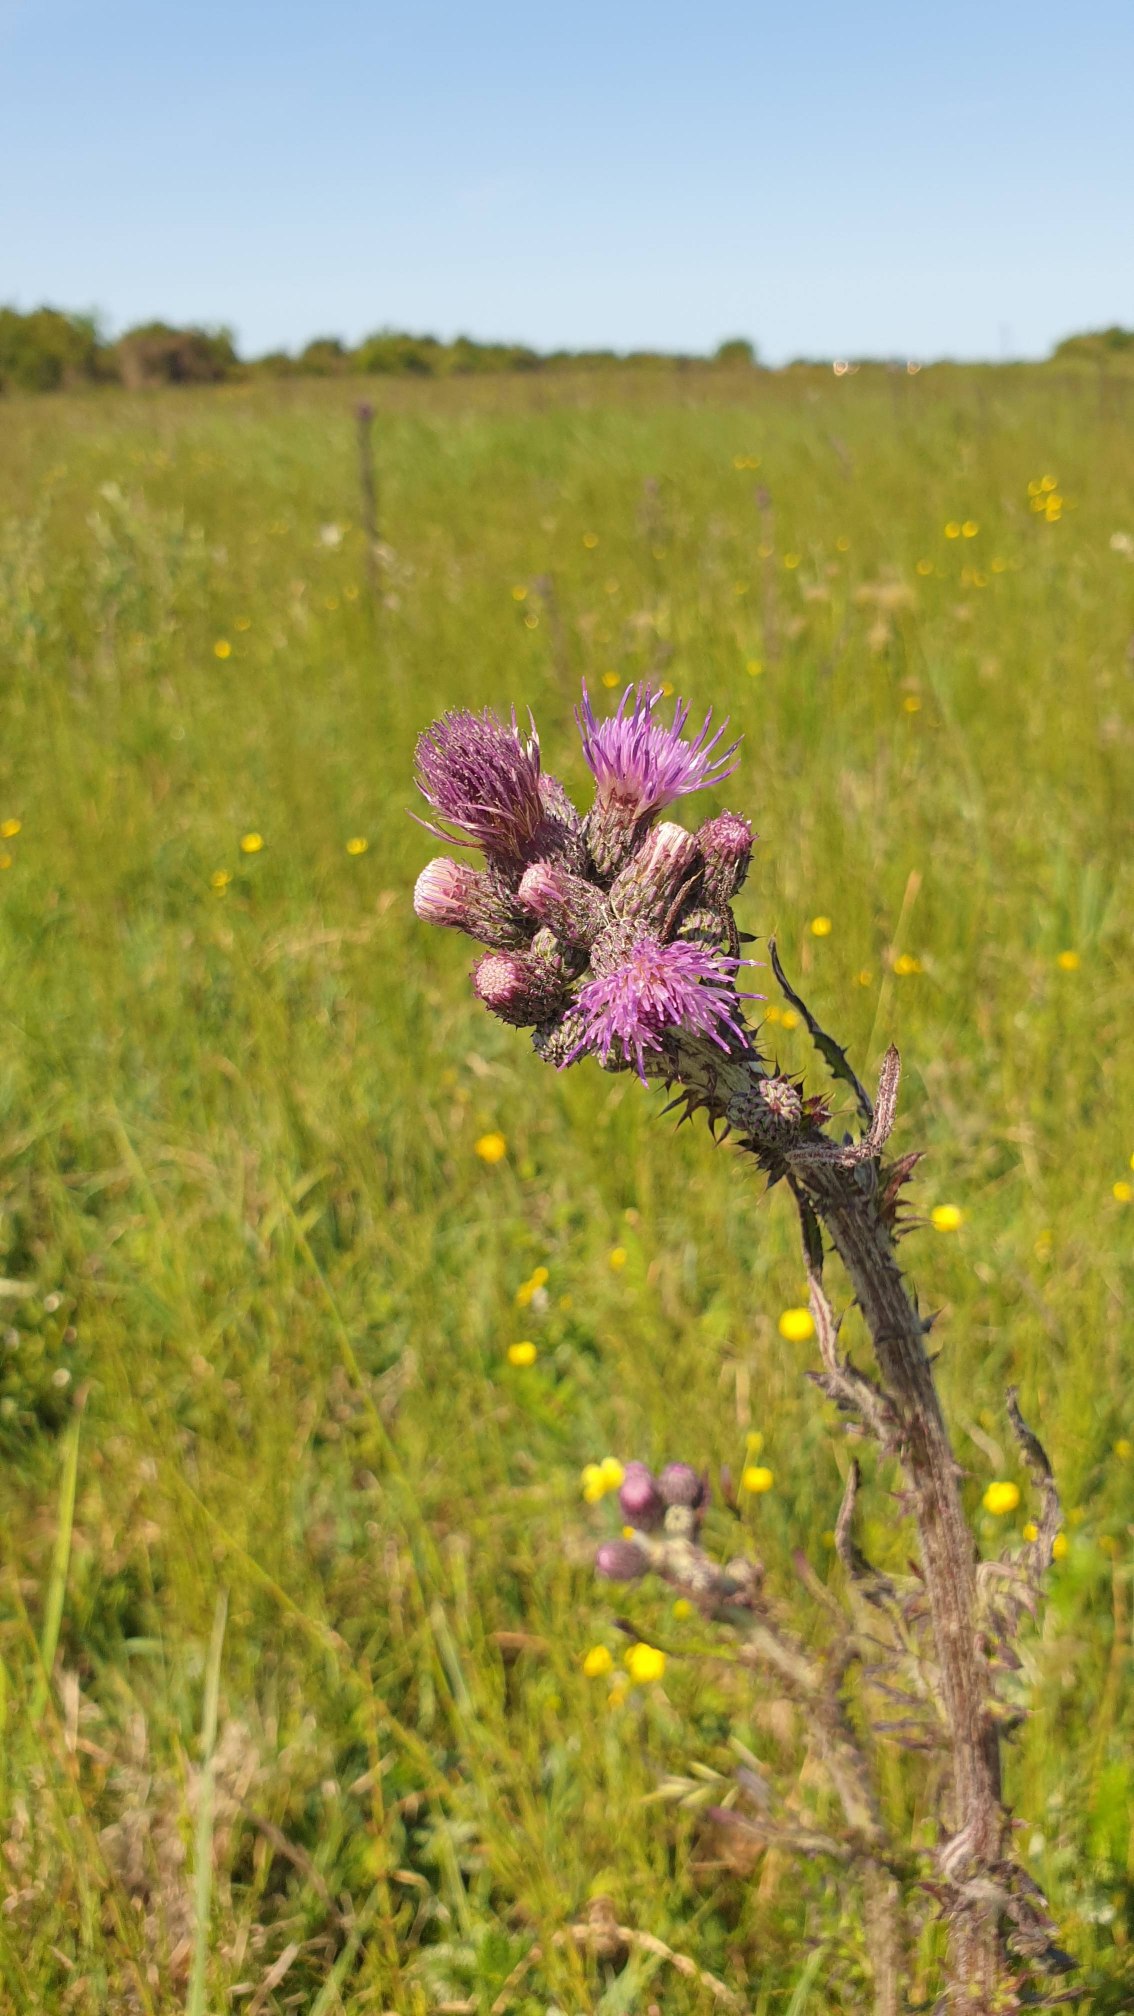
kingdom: Plantae
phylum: Tracheophyta
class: Magnoliopsida
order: Asterales
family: Asteraceae
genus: Cirsium
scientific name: Cirsium palustre
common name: Kær-tidsel
